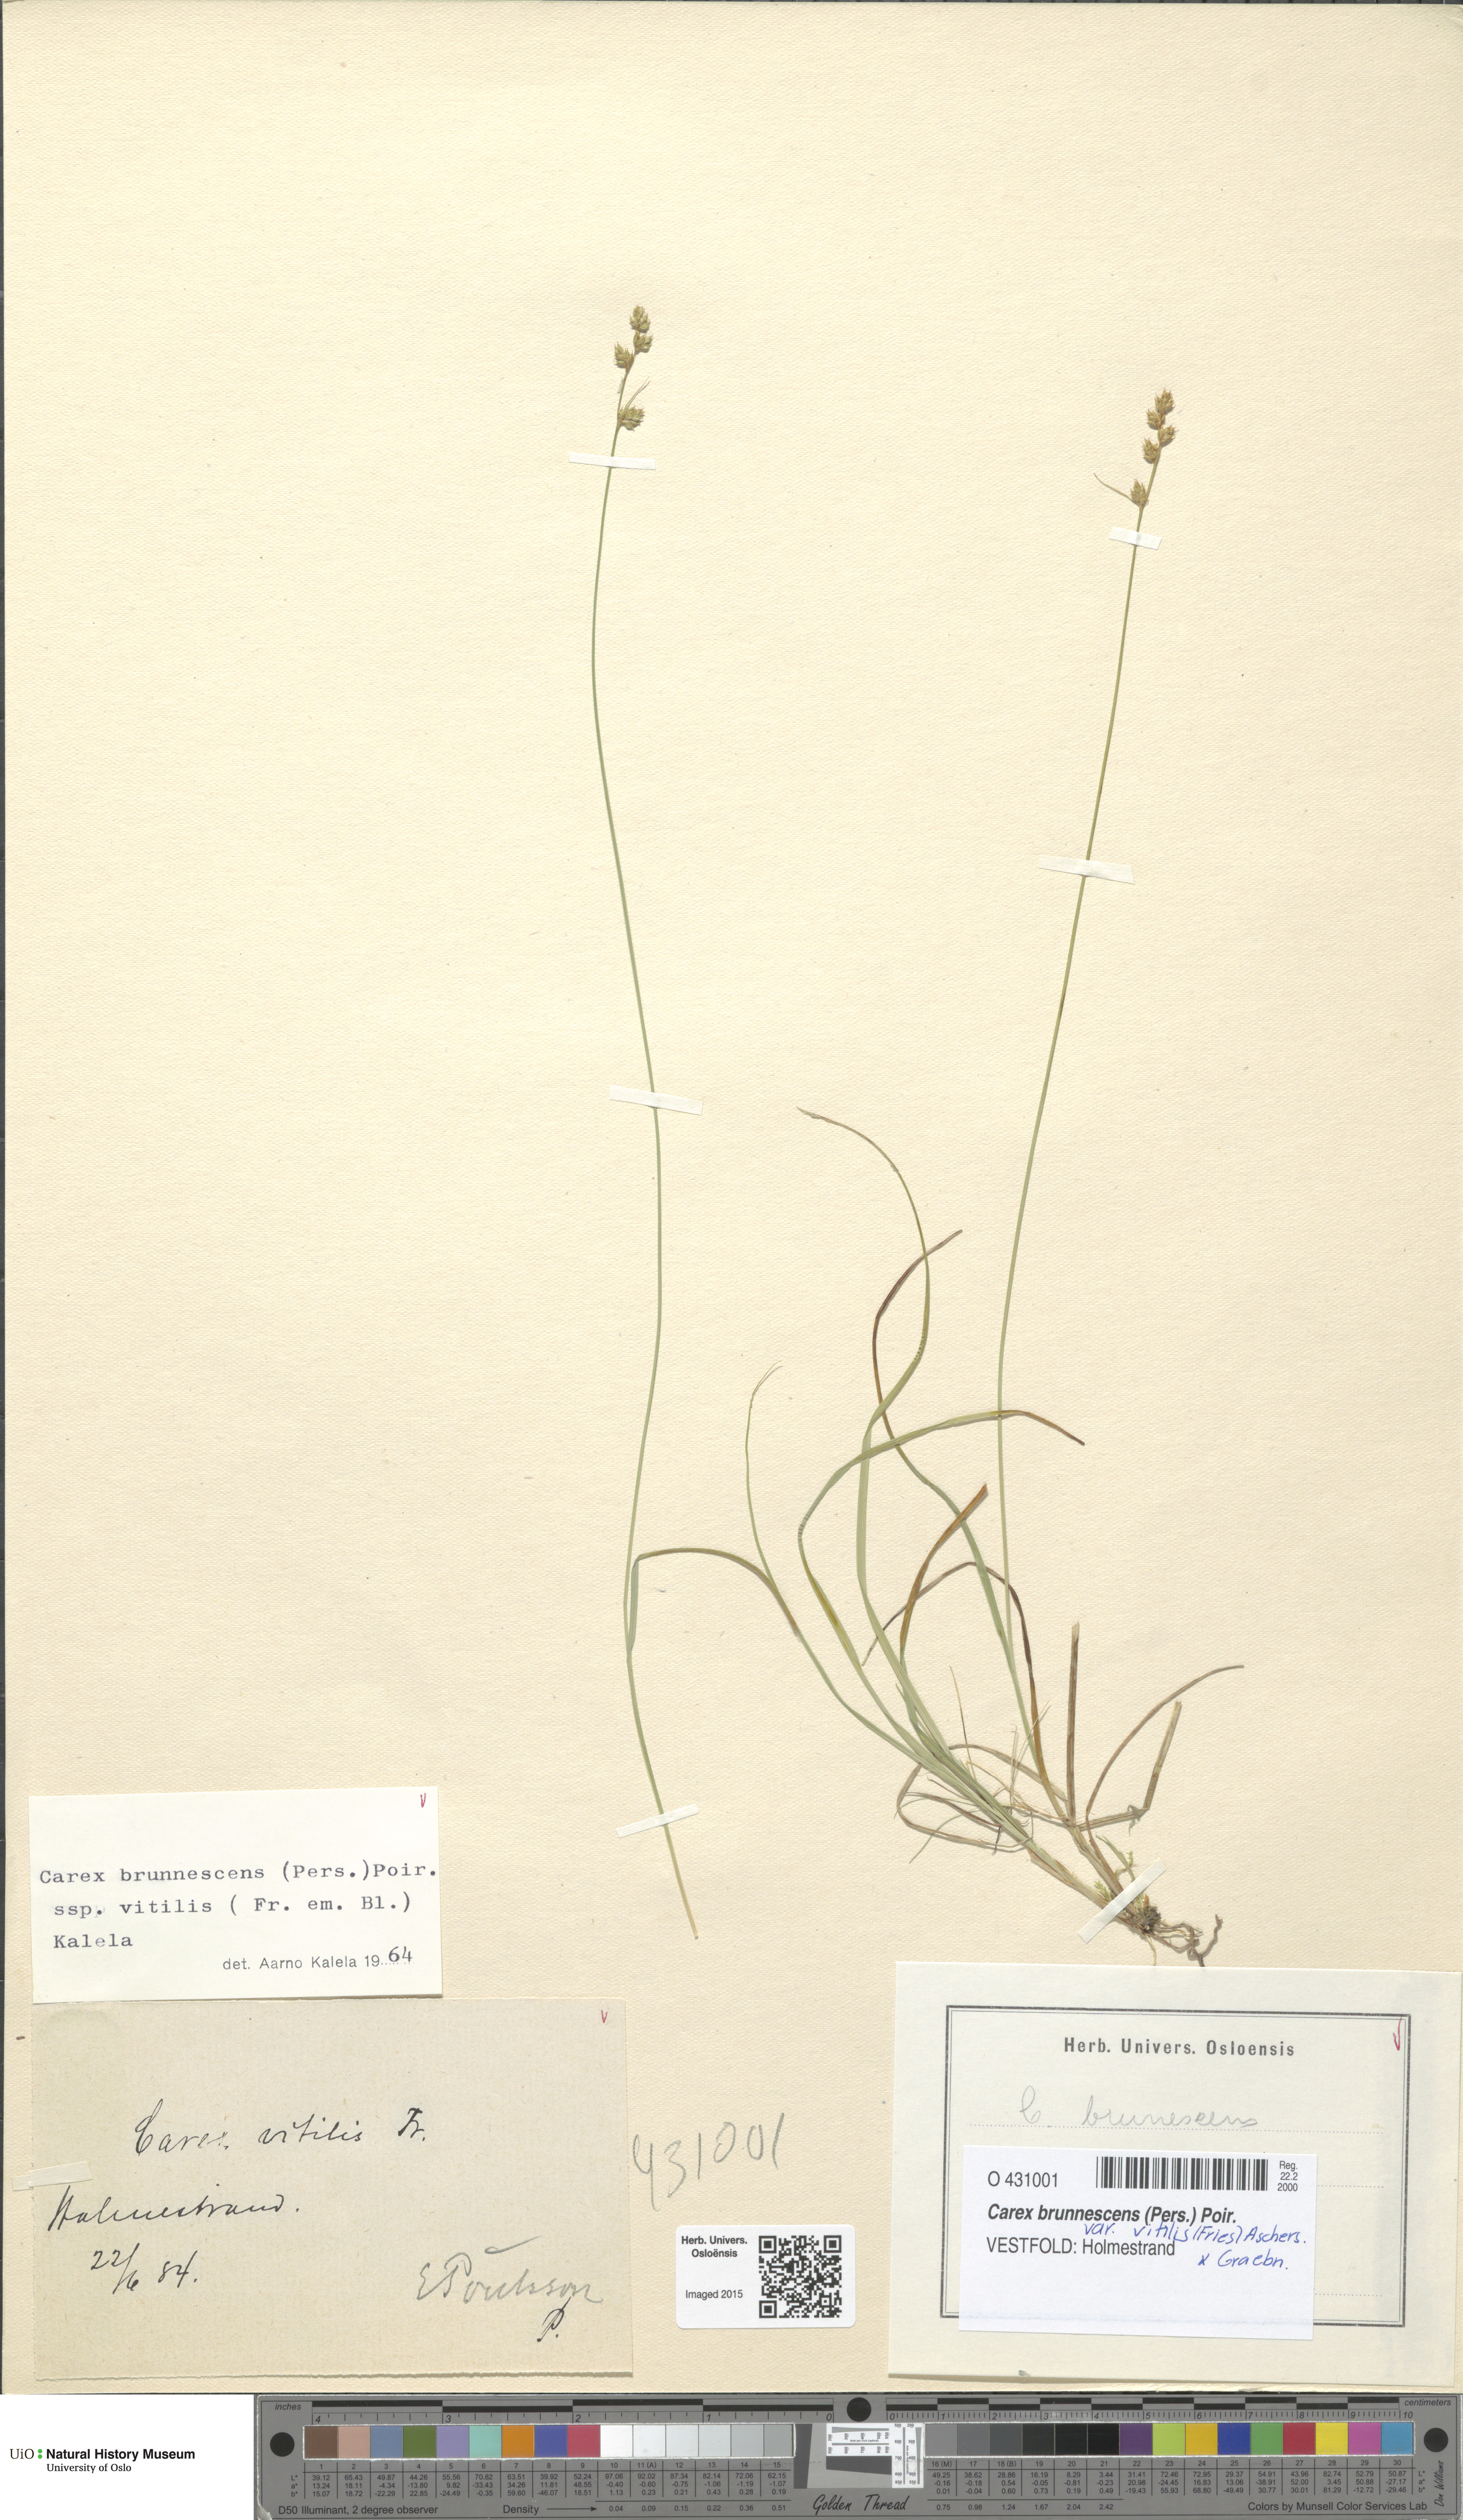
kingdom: Plantae
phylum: Tracheophyta
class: Liliopsida
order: Poales
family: Cyperaceae
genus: Carex
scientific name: Carex brunnescens
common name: Brown sedge
